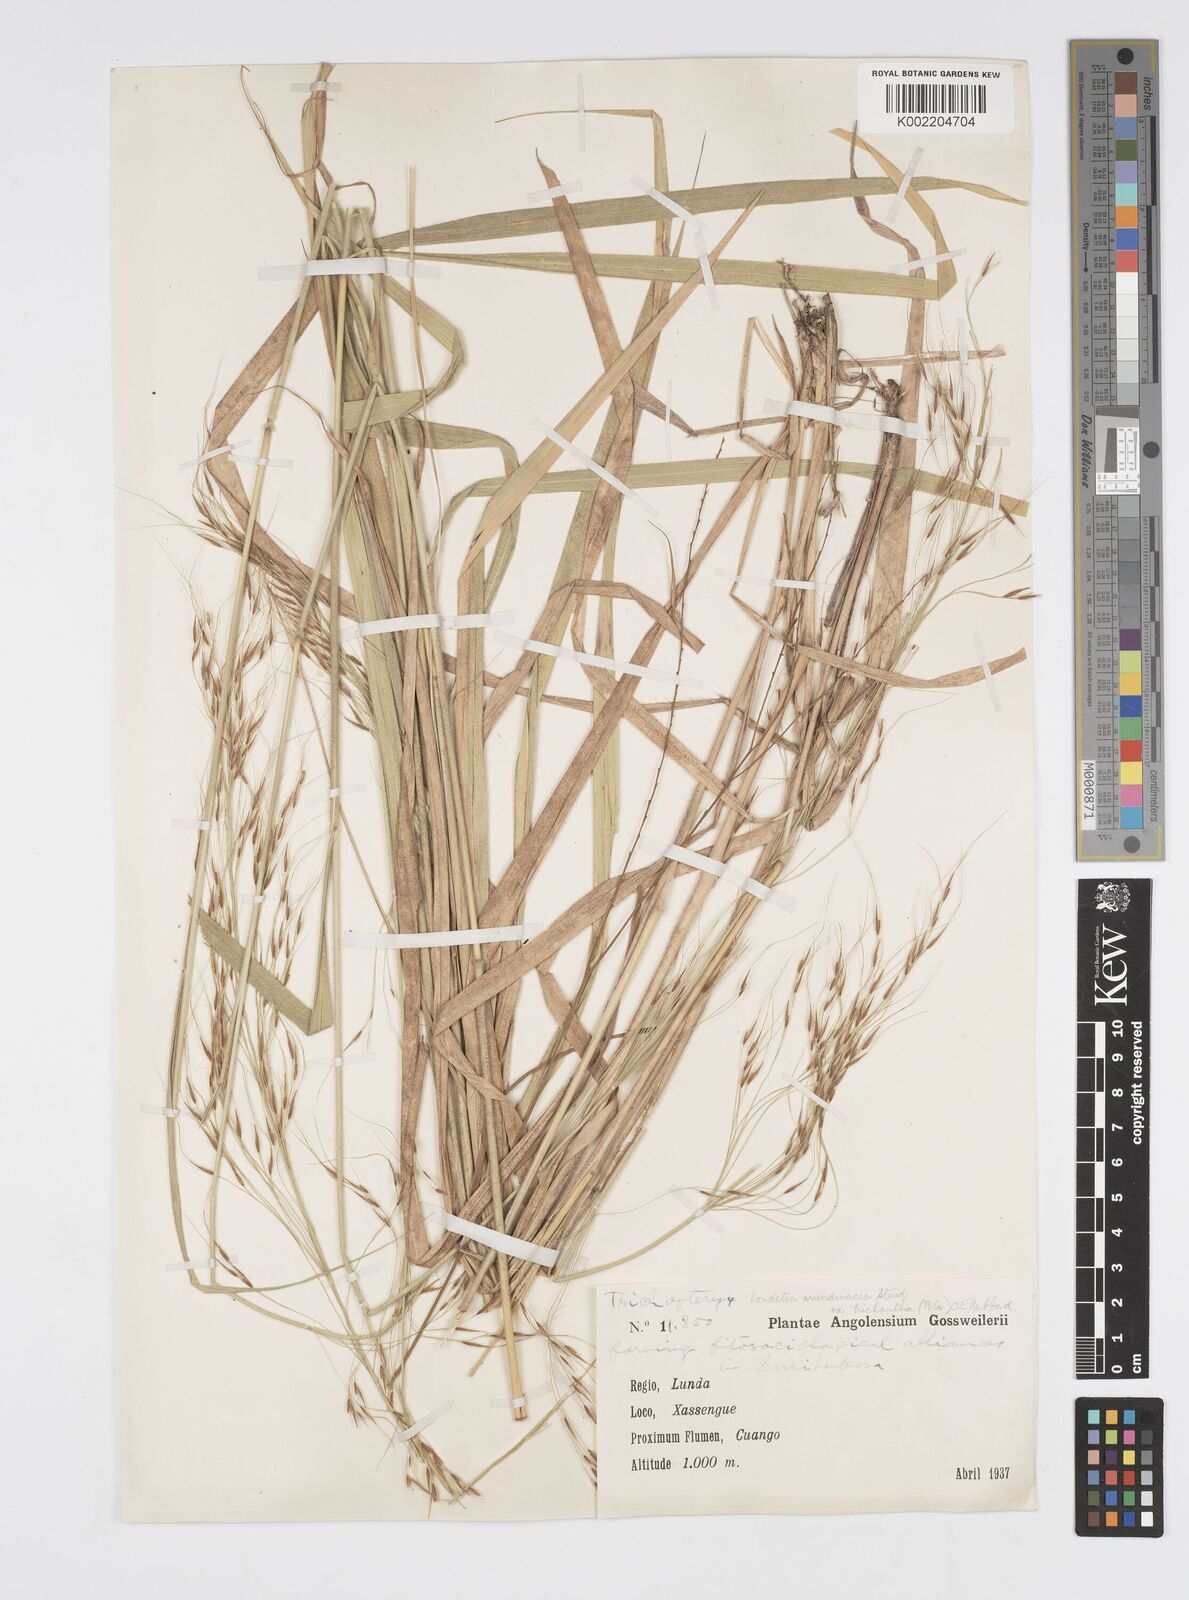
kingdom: Plantae
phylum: Tracheophyta
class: Liliopsida
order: Poales
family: Poaceae
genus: Loudetia
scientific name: Loudetia arundinacea
